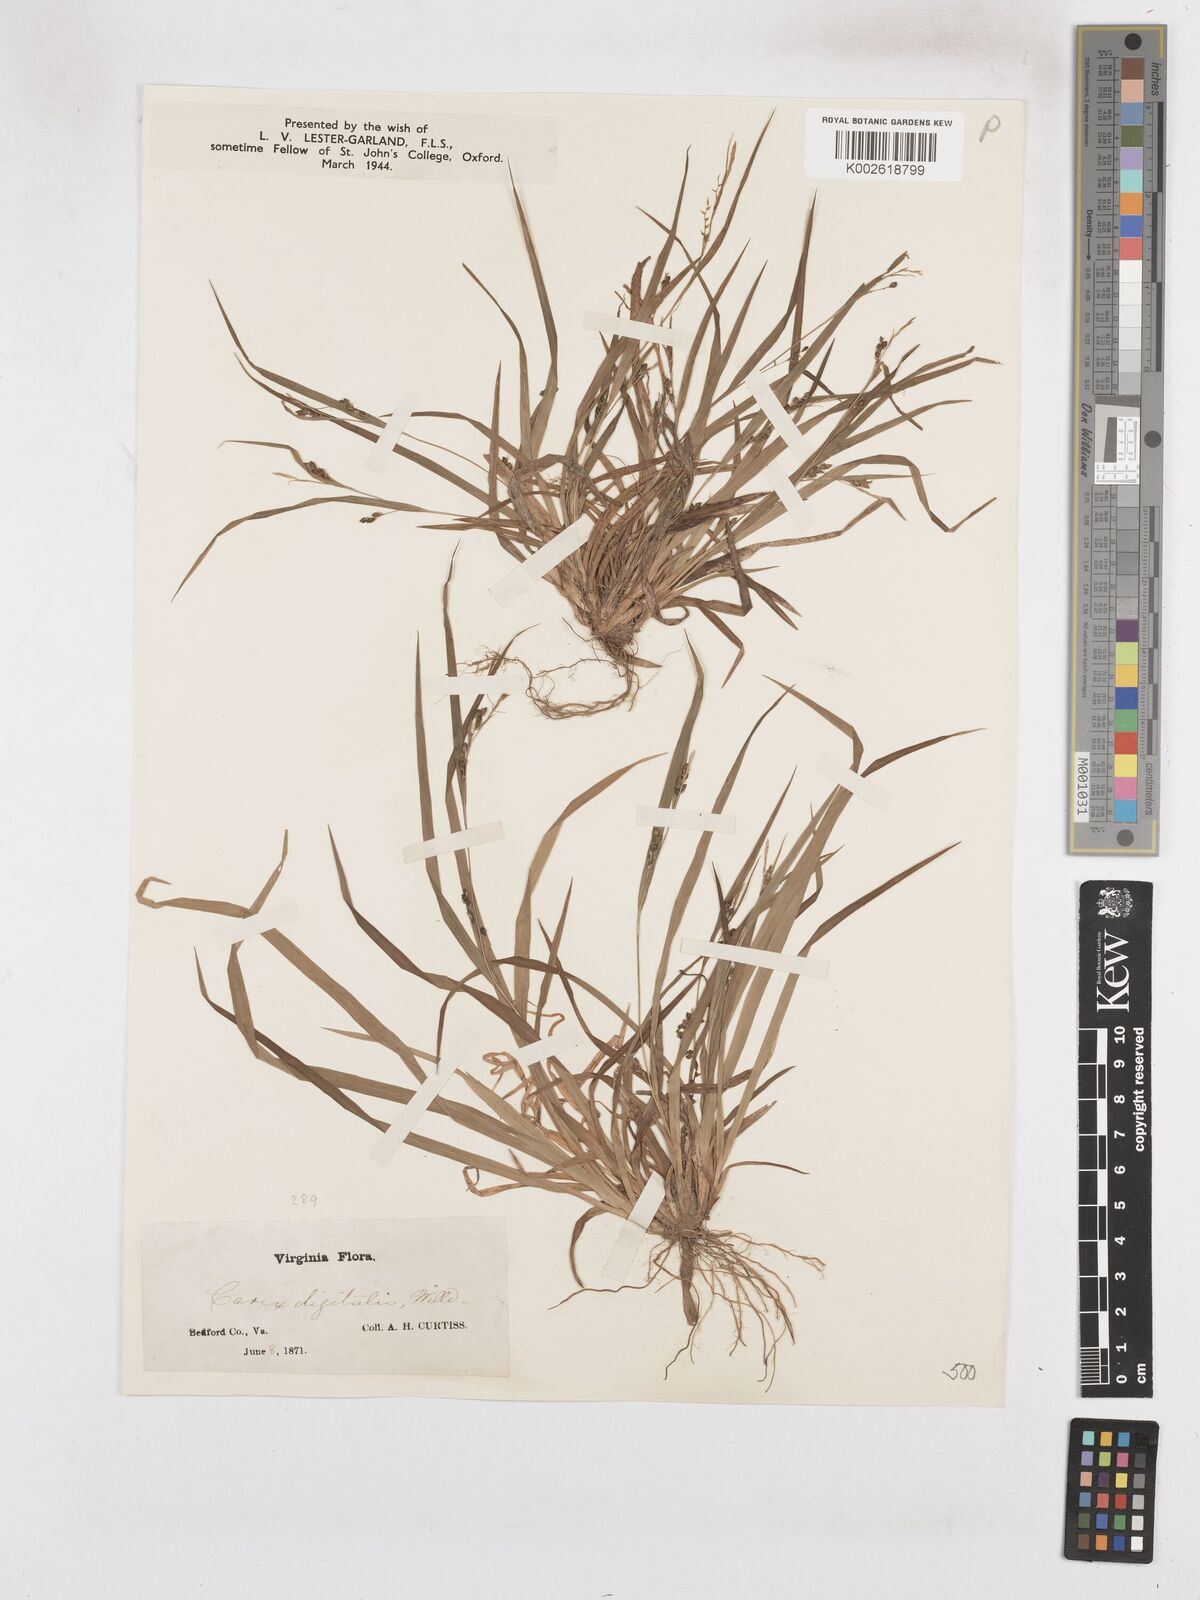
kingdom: Plantae
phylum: Tracheophyta
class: Liliopsida
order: Poales
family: Cyperaceae
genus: Carex
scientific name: Carex digitalis
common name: Slender wood sedge
